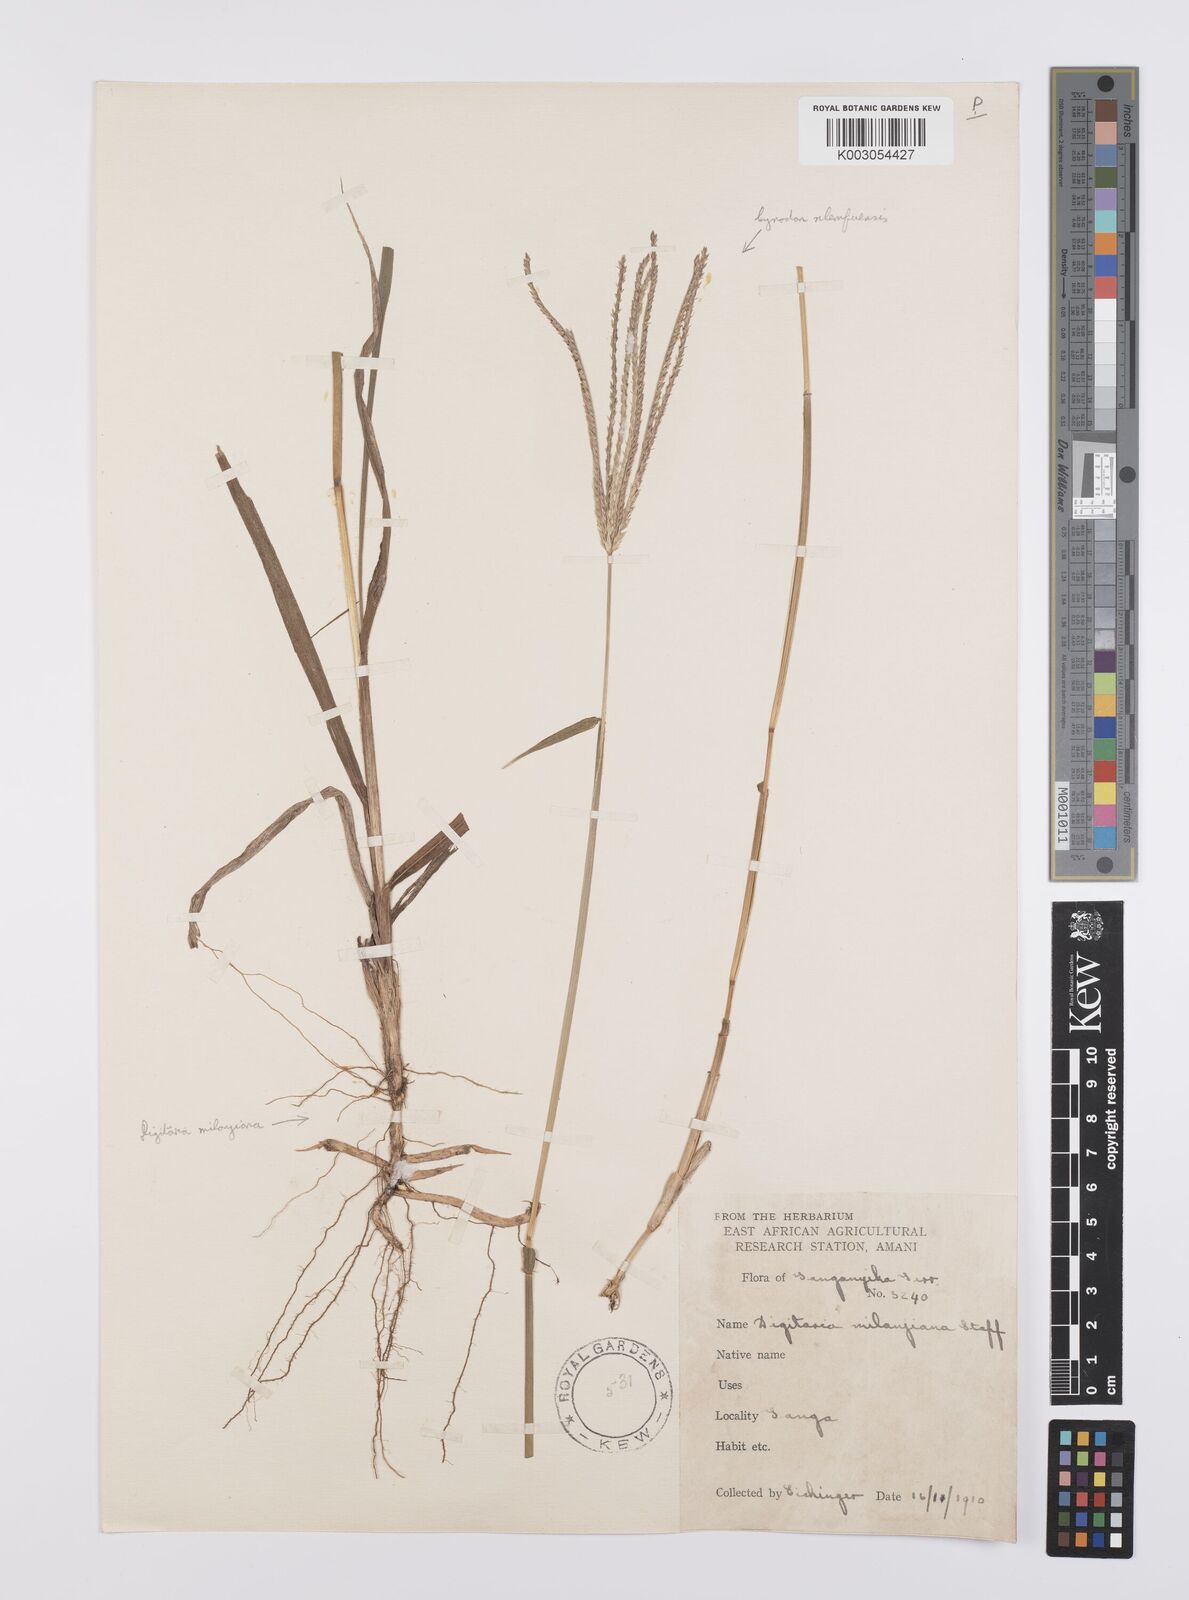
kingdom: Plantae
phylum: Tracheophyta
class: Liliopsida
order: Poales
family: Poaceae
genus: Cynodon
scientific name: Cynodon nlemfuensis
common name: African bermudagrass
